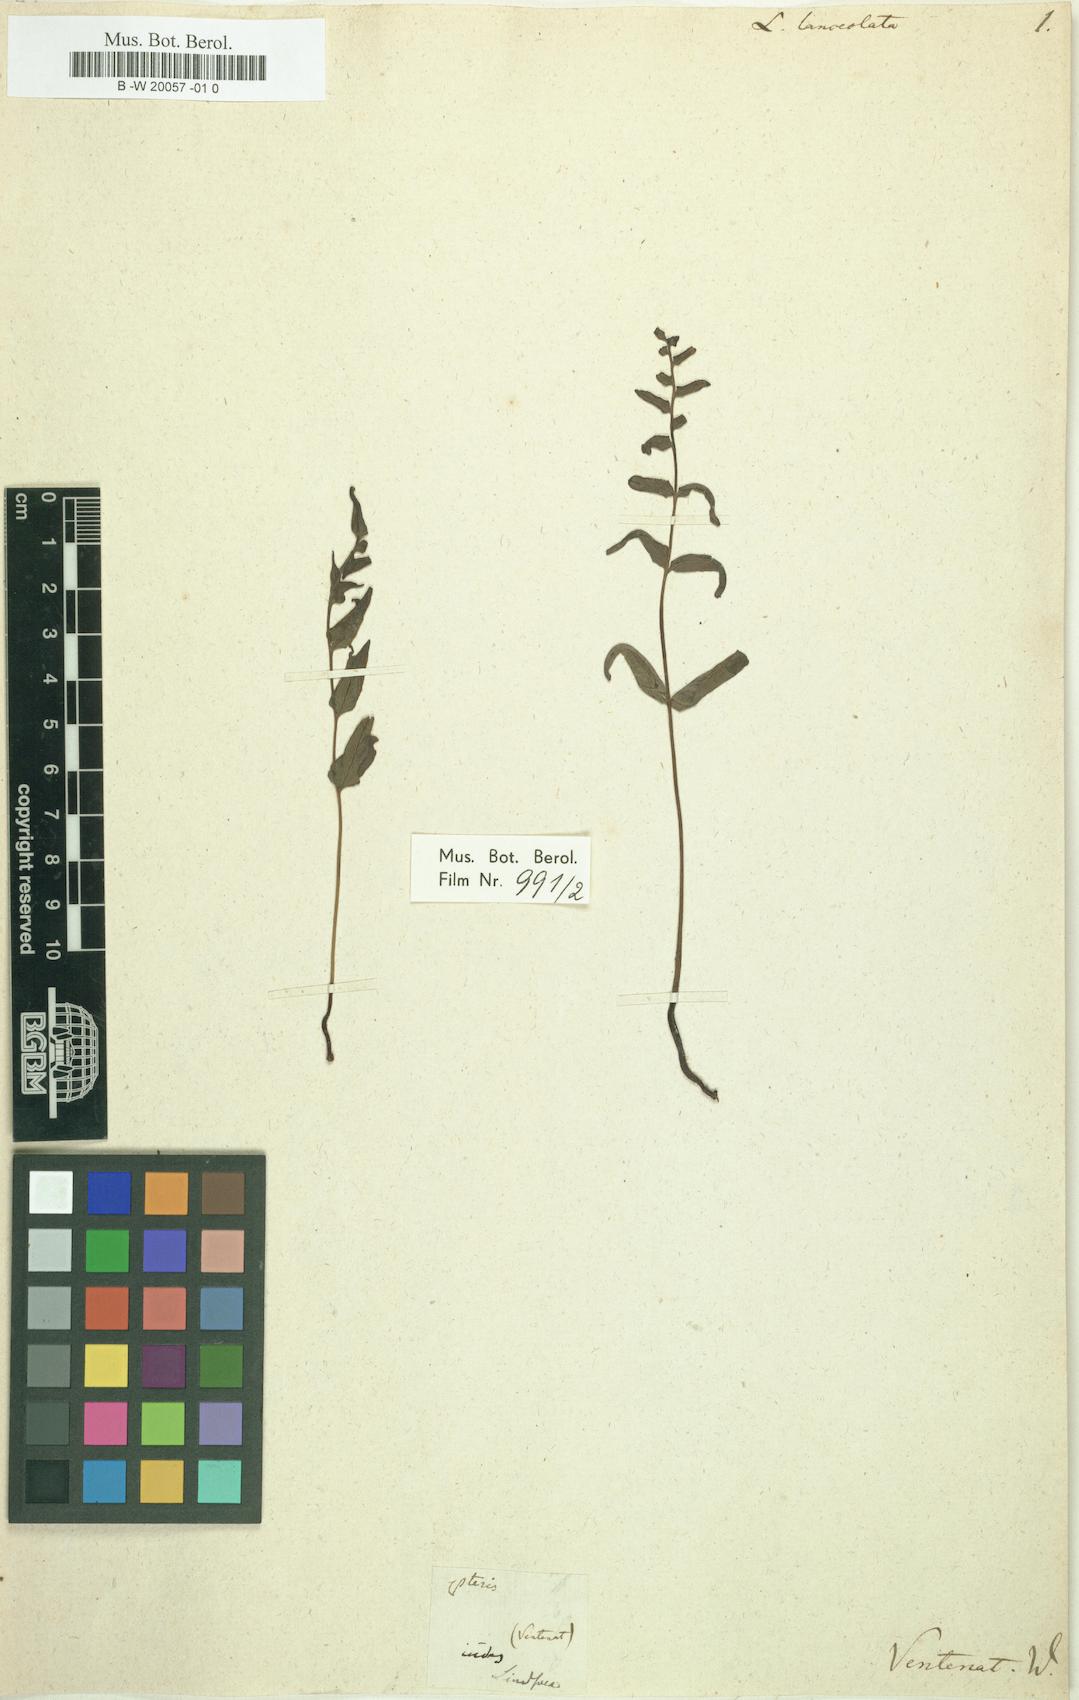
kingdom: Plantae
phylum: Tracheophyta
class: Polypodiopsida
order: Polypodiales
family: Lindsaeaceae
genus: Lindsaea
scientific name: Lindsaea ensifolia
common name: Graceful necklace fern
